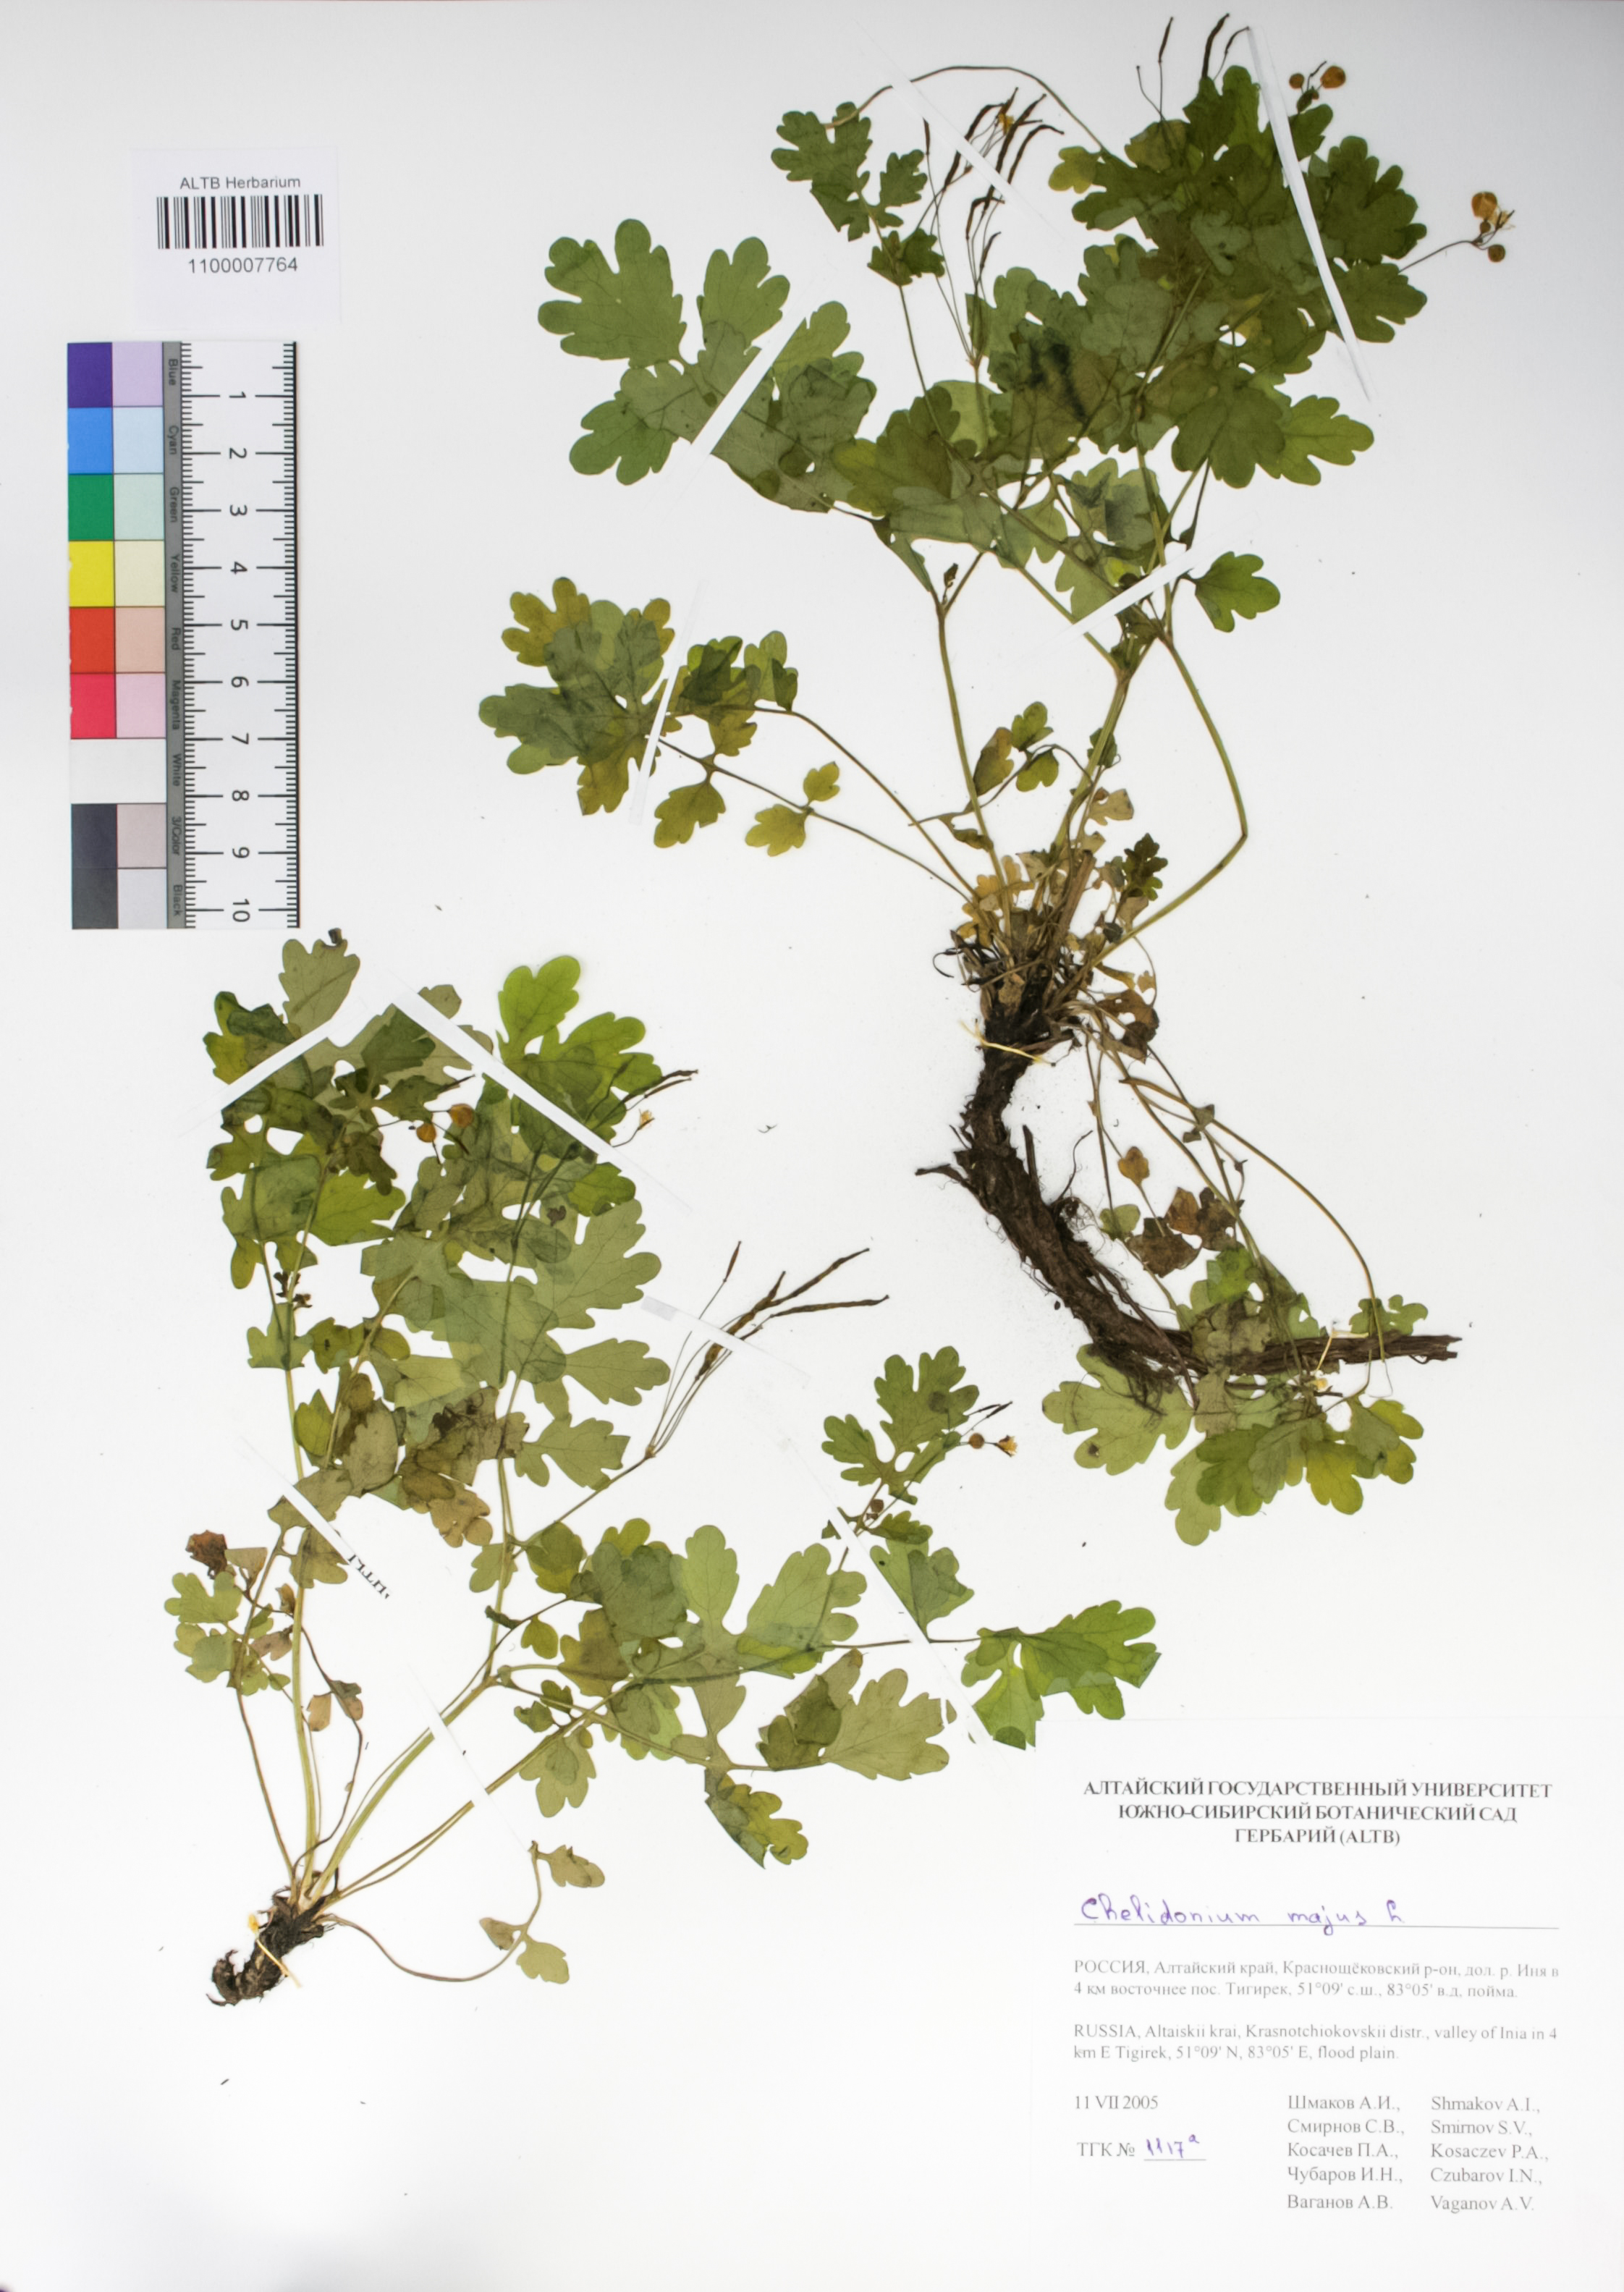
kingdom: Plantae
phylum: Tracheophyta
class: Magnoliopsida
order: Ranunculales
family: Papaveraceae
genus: Chelidonium
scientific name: Chelidonium majus
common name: Greater celandine
